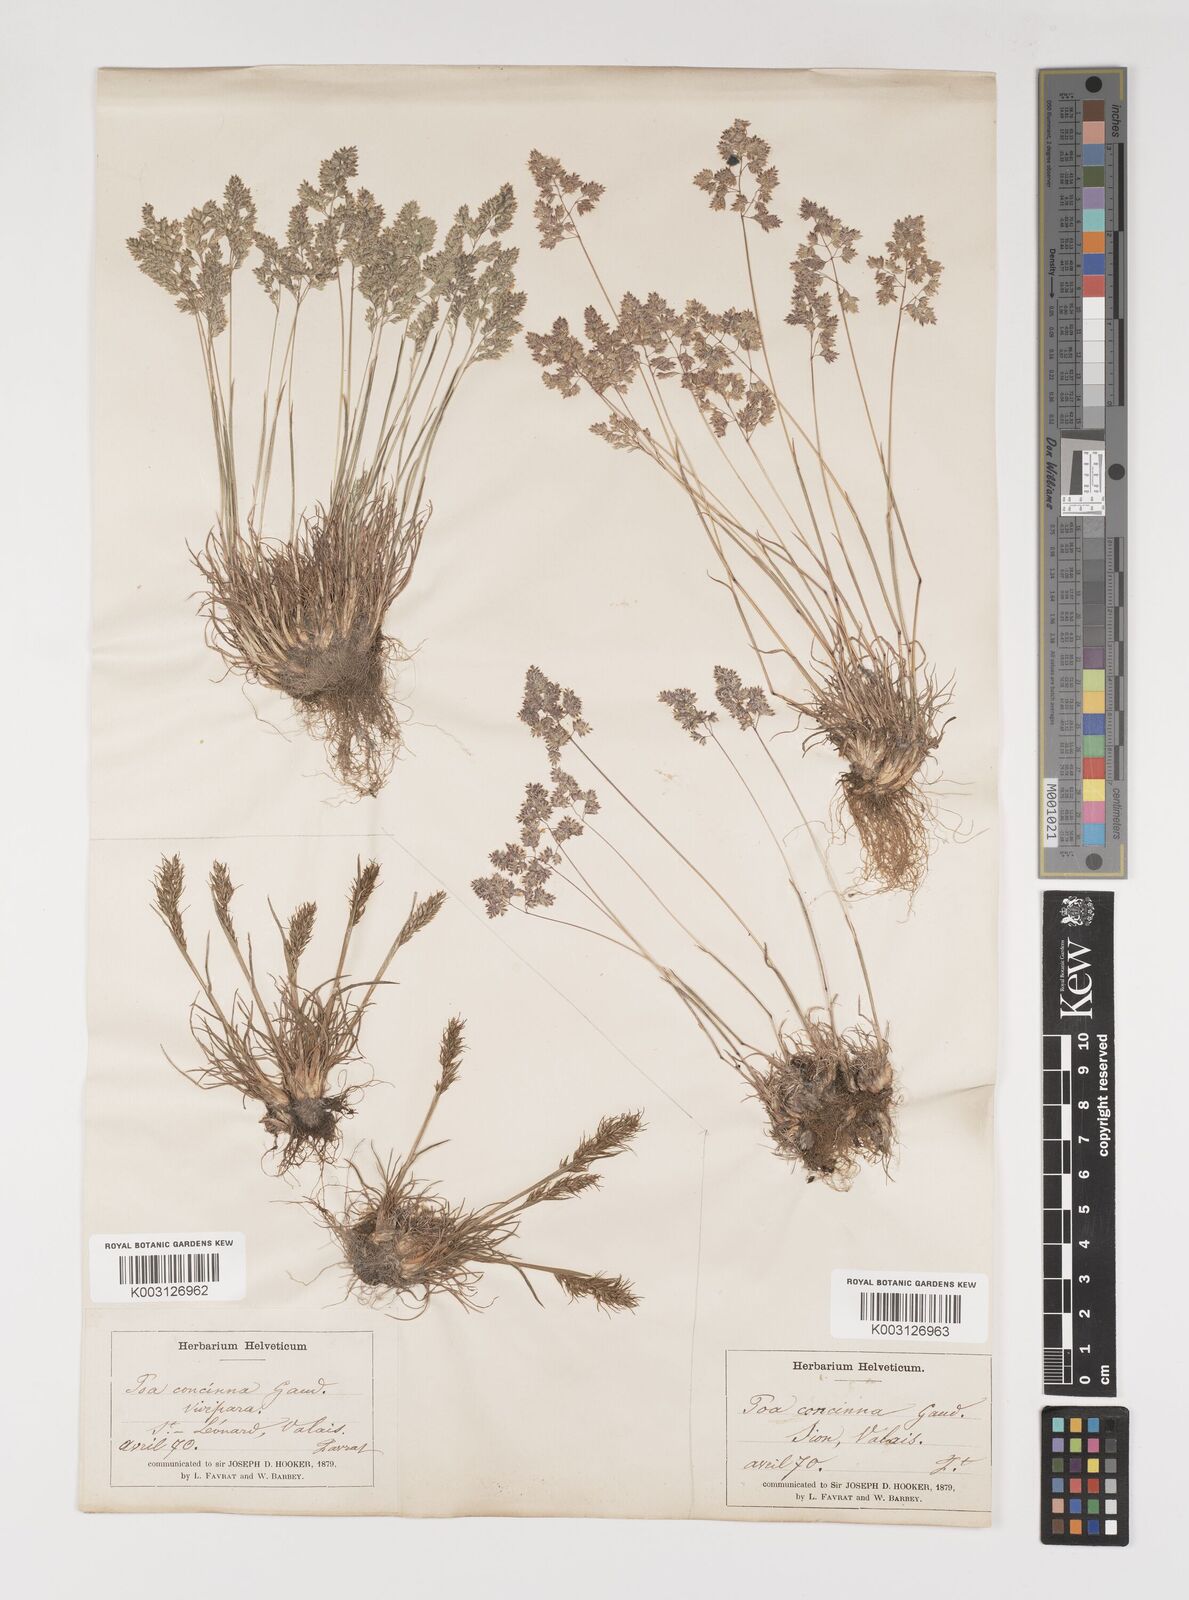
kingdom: Plantae
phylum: Tracheophyta
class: Liliopsida
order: Poales
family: Poaceae
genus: Poa
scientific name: Poa perconcinna
